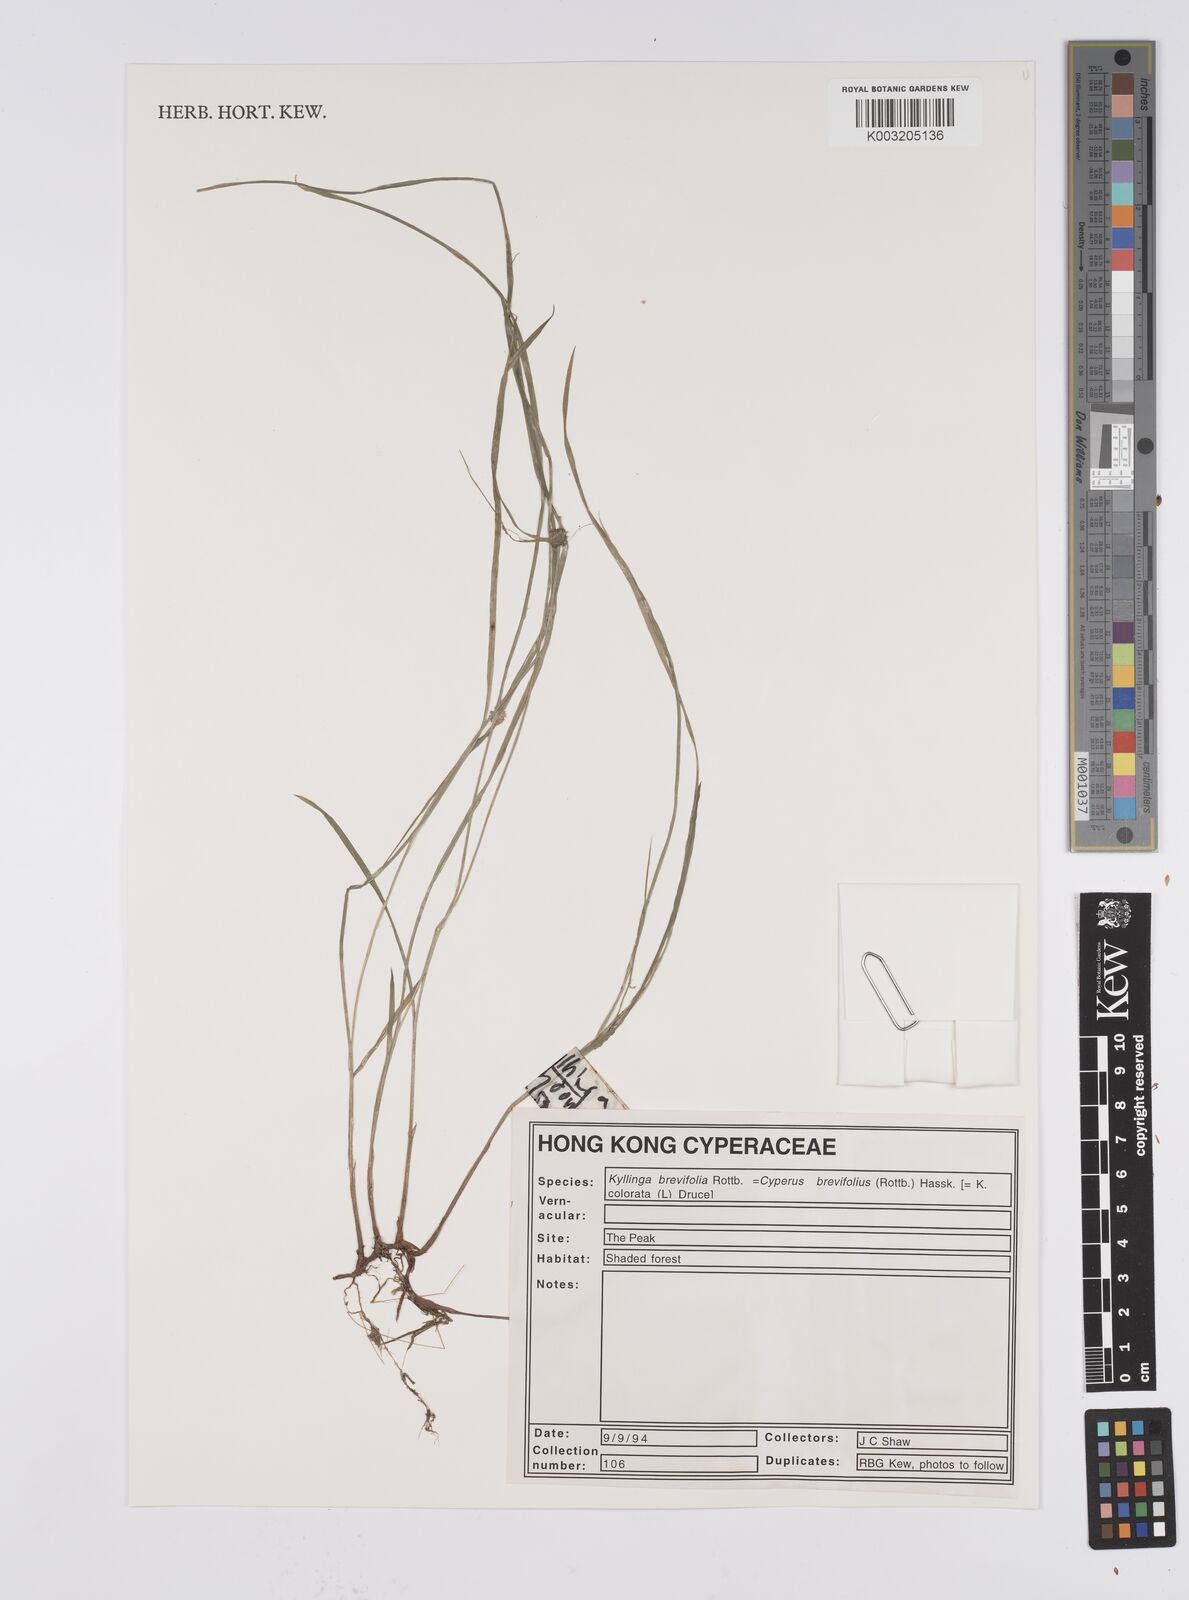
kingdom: Plantae
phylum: Tracheophyta
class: Liliopsida
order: Poales
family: Cyperaceae
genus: Cyperus
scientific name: Cyperus brevifolius
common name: Globe kyllinga
